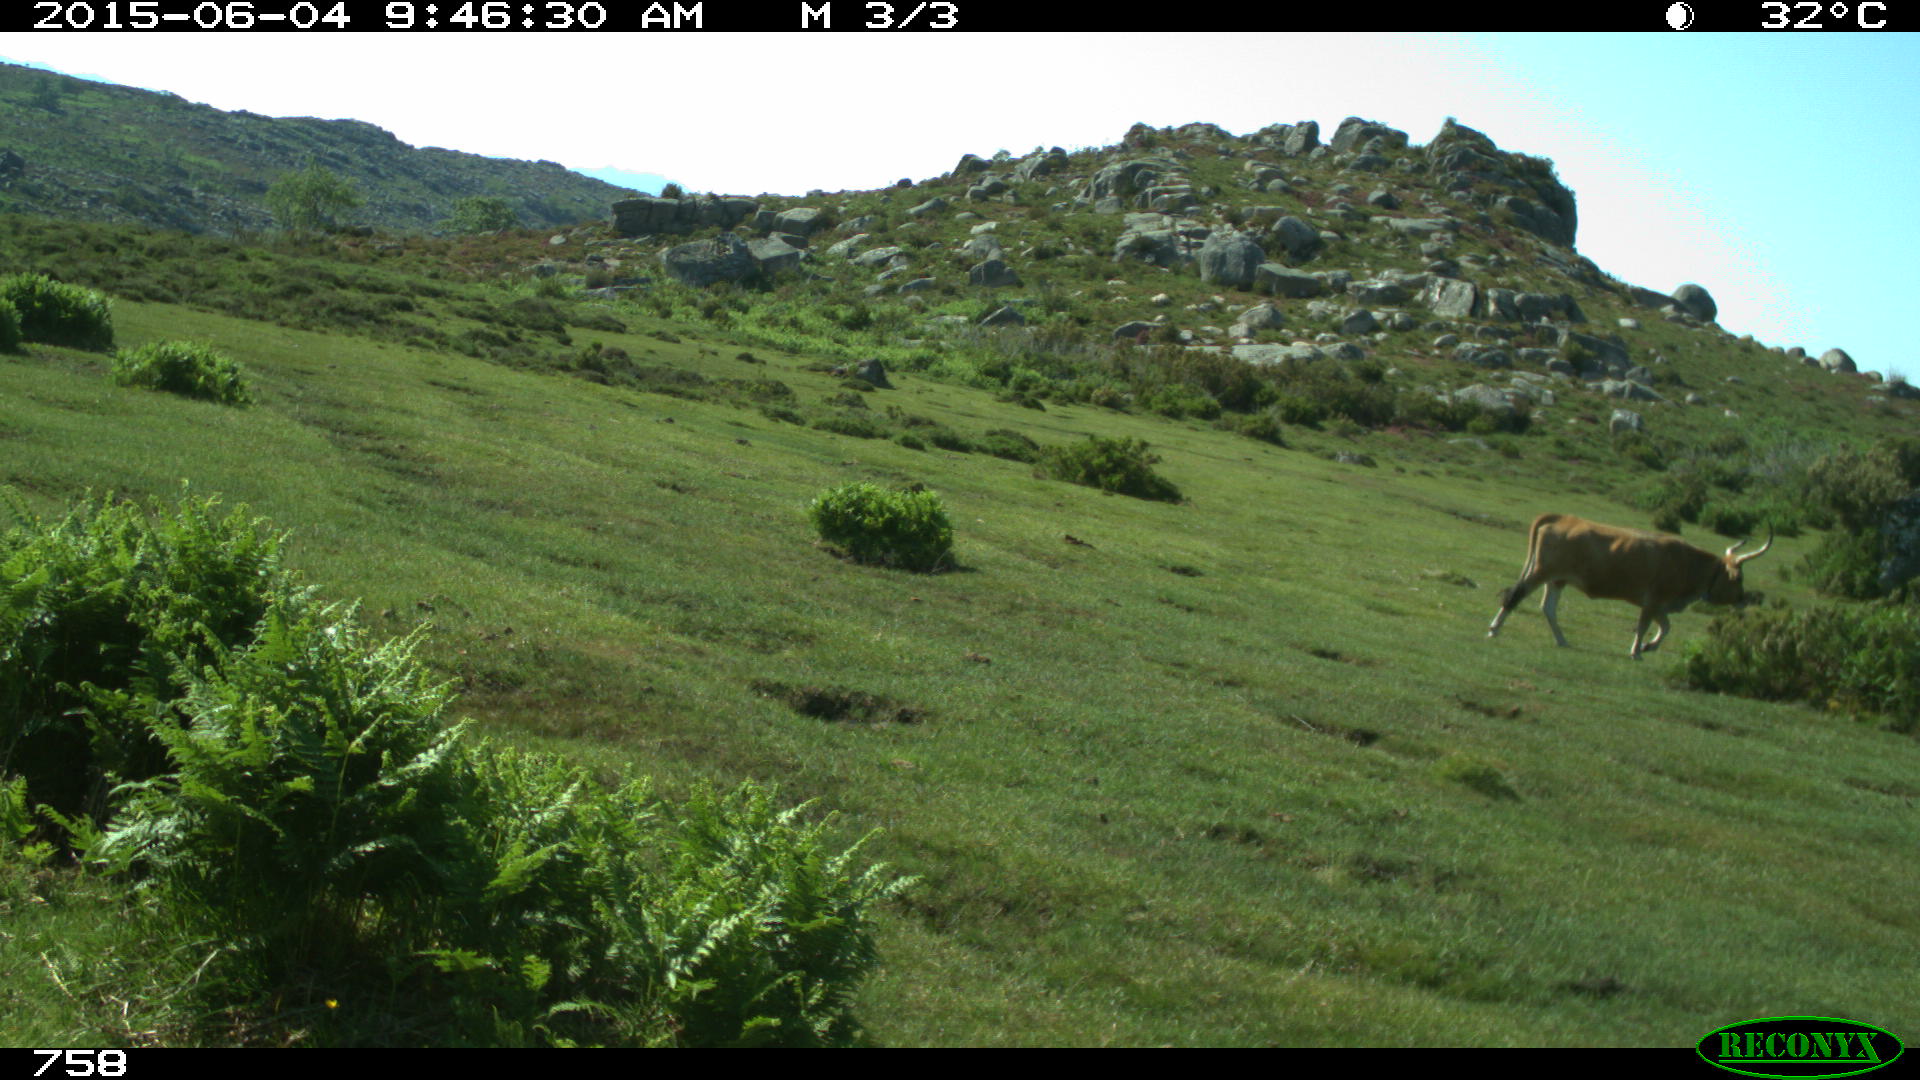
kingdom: Animalia
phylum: Chordata
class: Mammalia
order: Artiodactyla
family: Bovidae
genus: Bos
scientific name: Bos taurus
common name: Domesticated cattle
